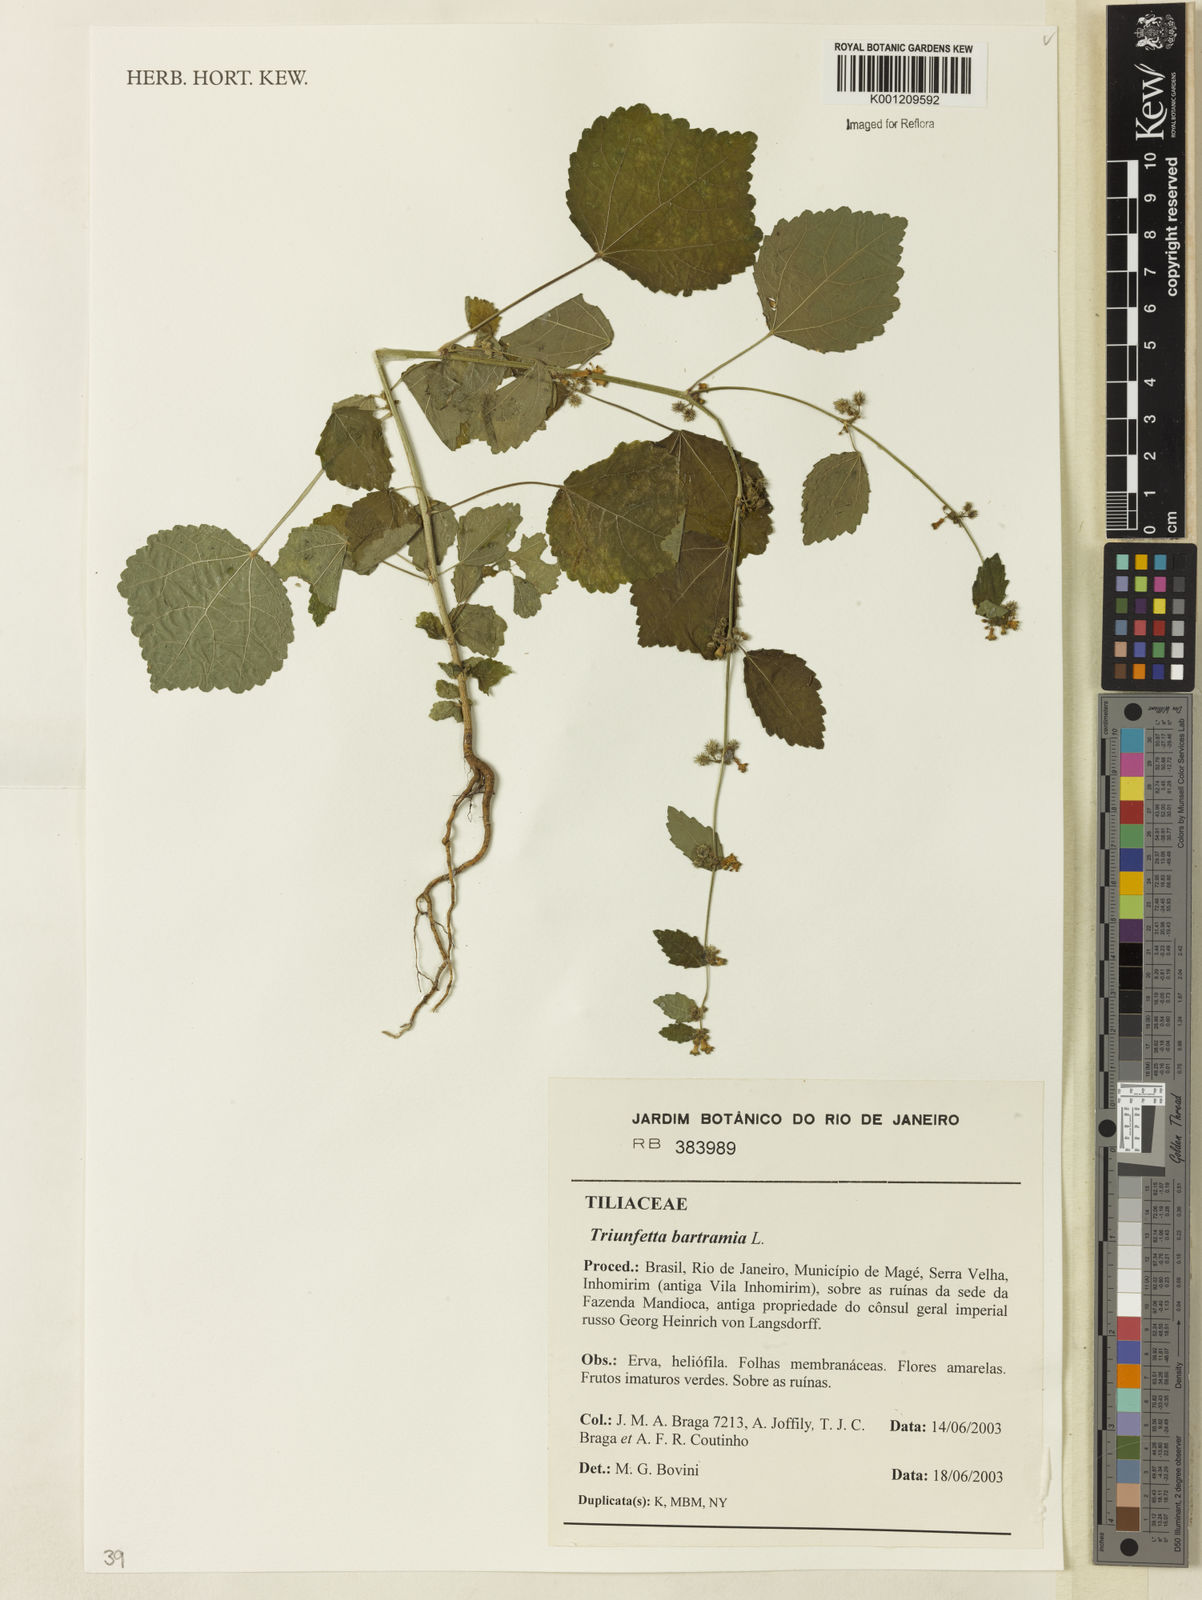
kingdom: Plantae
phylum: Tracheophyta
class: Magnoliopsida
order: Malvales
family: Malvaceae
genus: Triumfetta
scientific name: Triumfetta rhomboidea
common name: Diamond burbark
